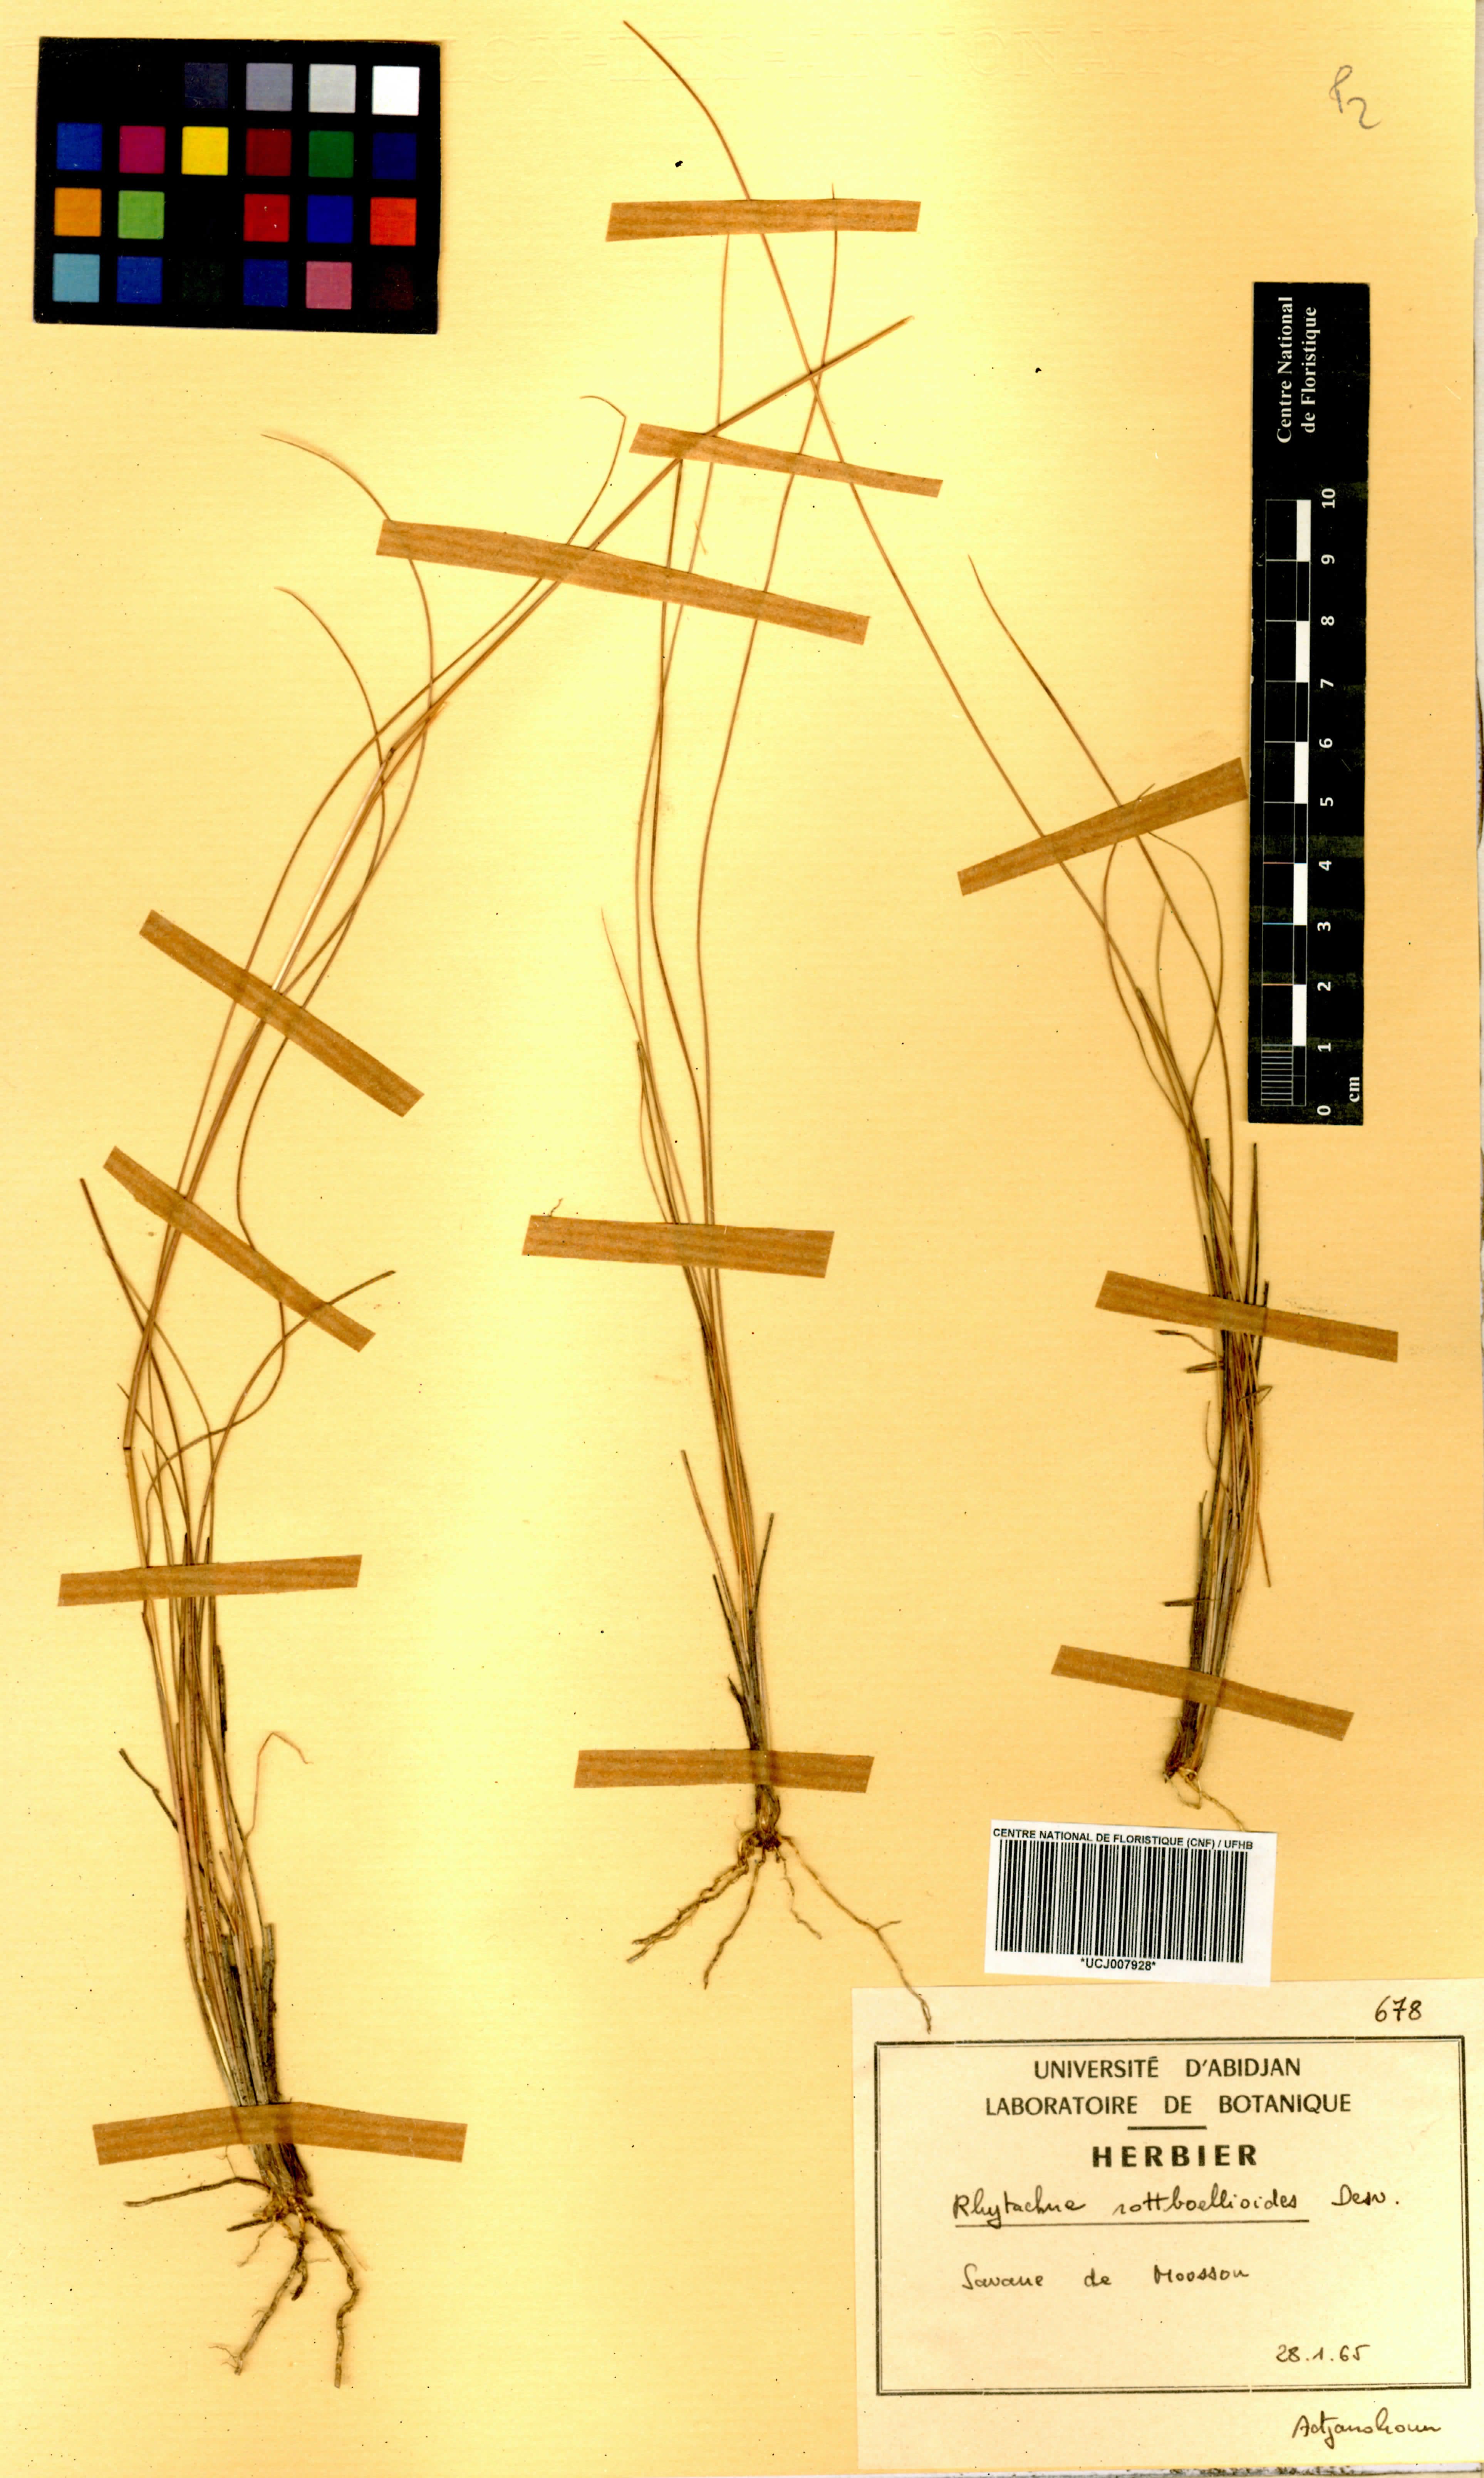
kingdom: Plantae
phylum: Tracheophyta
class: Liliopsida
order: Poales
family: Poaceae
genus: Rhytachne
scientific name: Rhytachne rottboellioides
